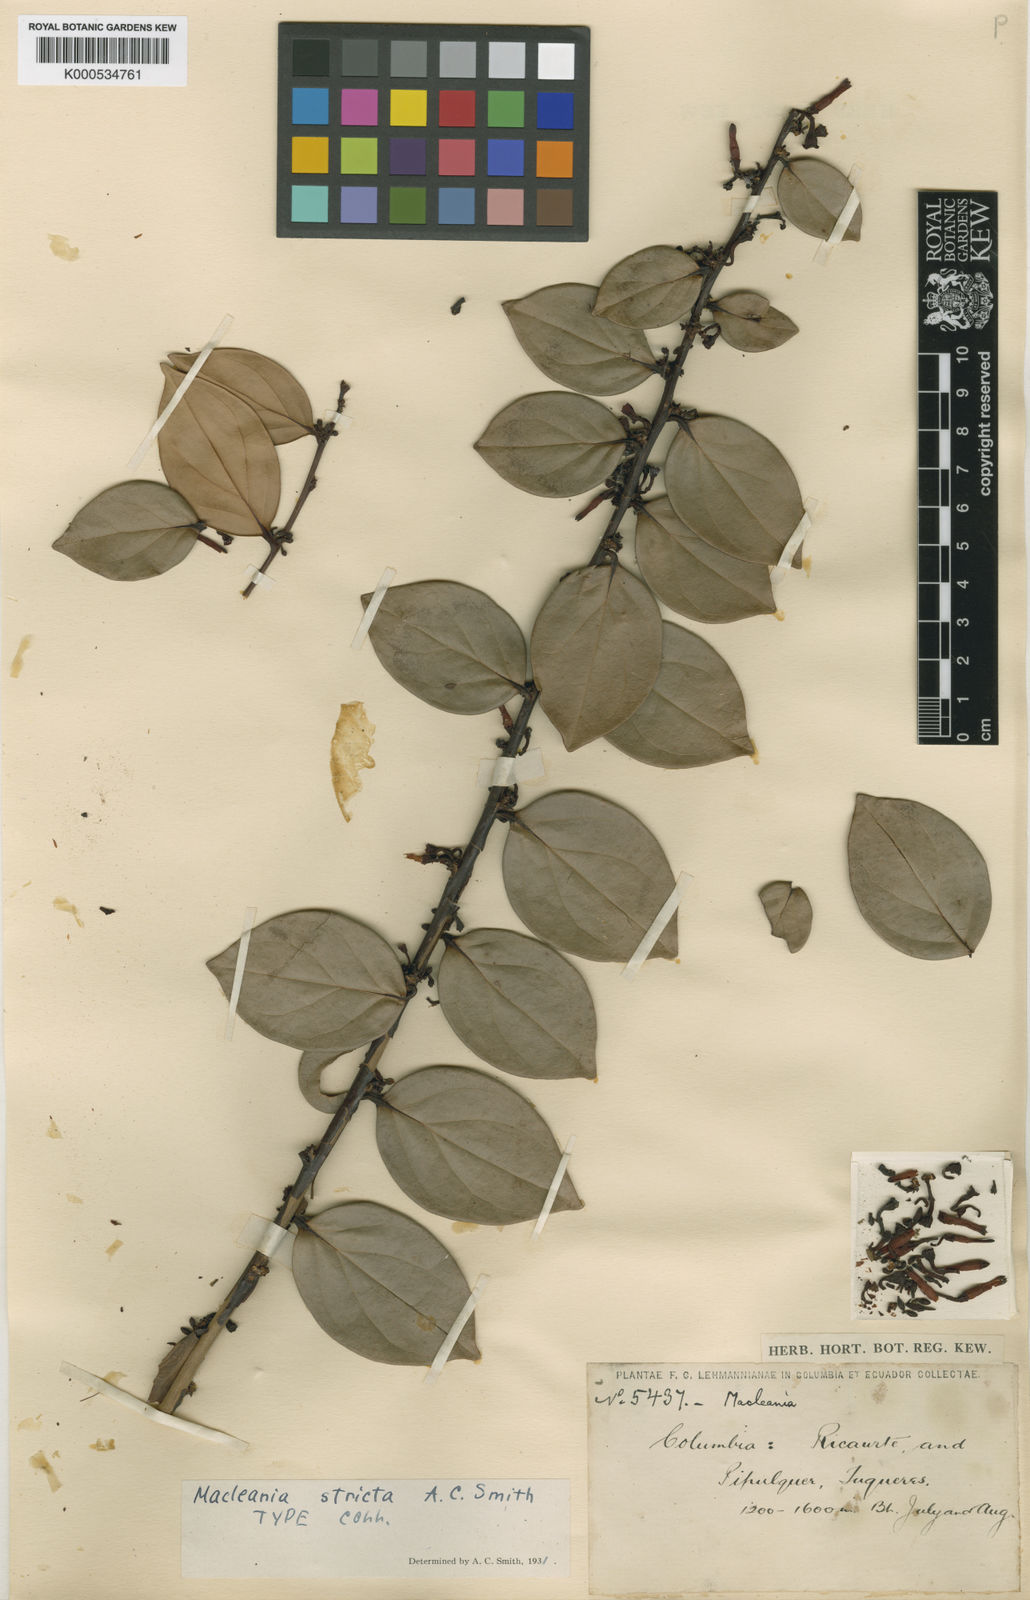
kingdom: Plantae
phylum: Tracheophyta
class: Magnoliopsida
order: Ericales
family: Ericaceae
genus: Macleania
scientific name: Macleania stricta
